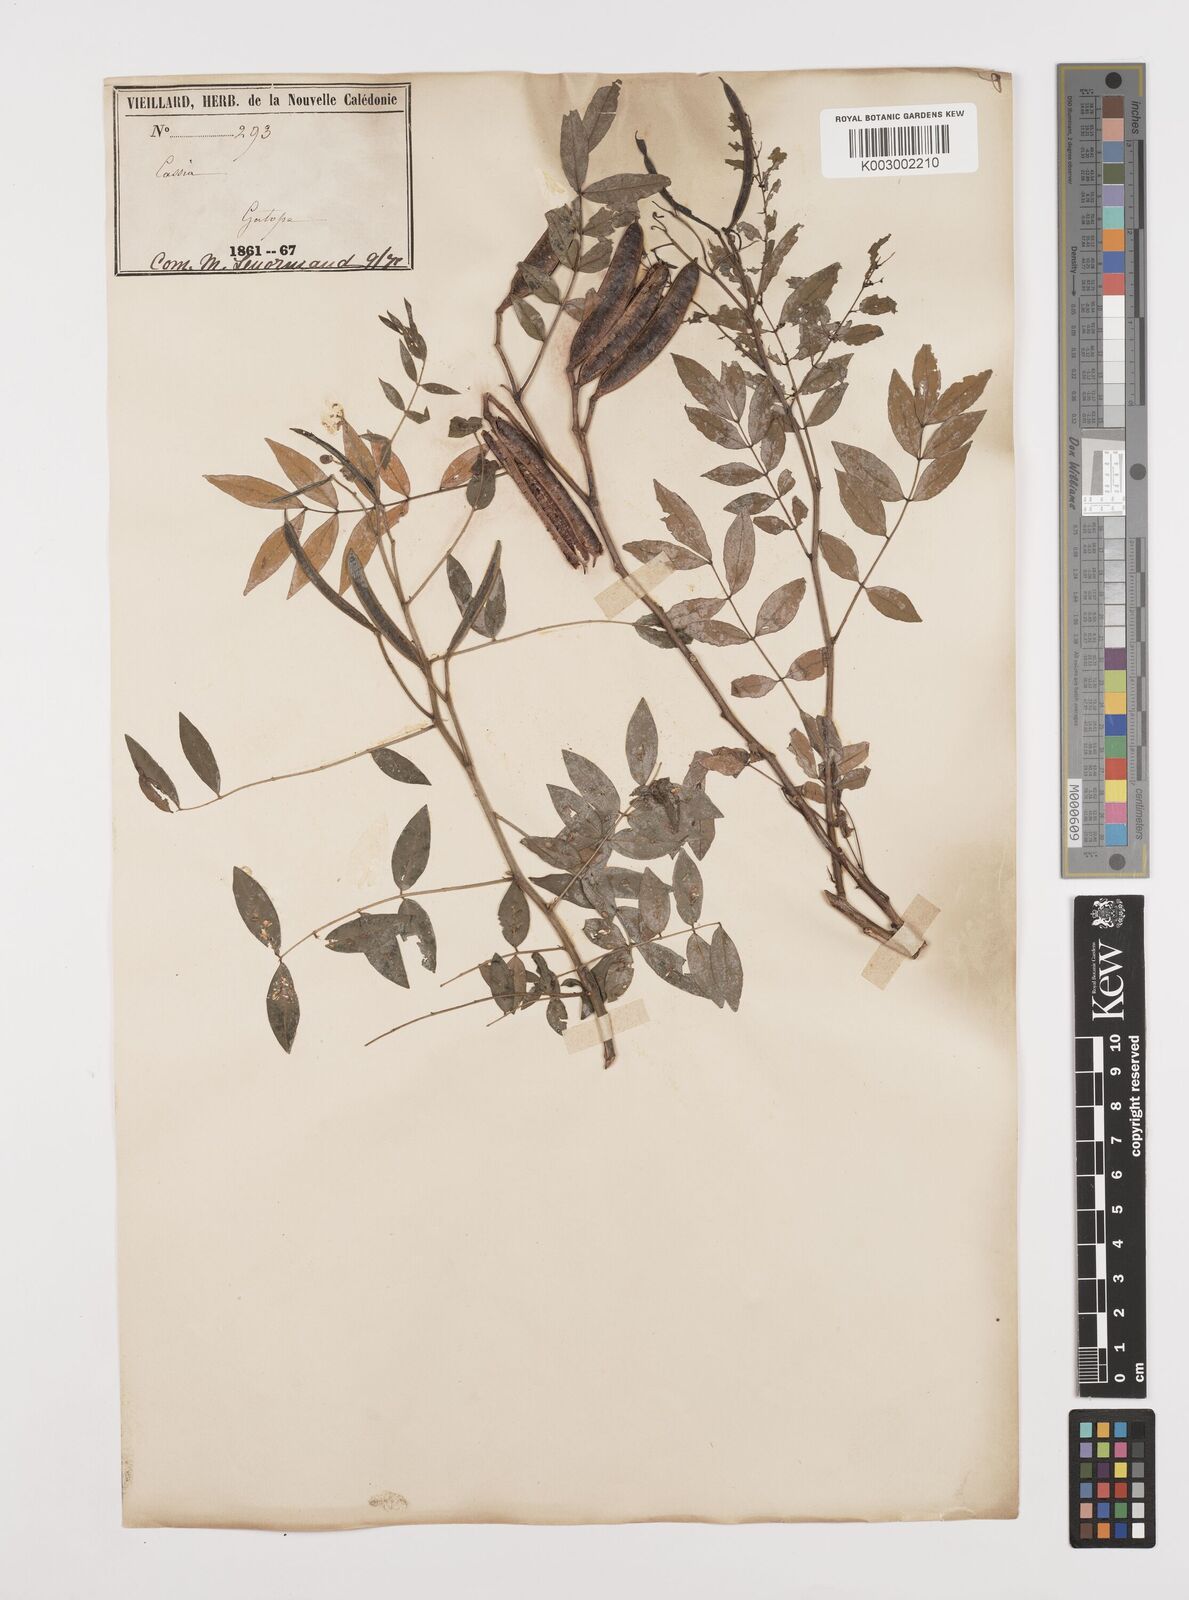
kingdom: Plantae
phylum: Tracheophyta
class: Magnoliopsida
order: Fabales
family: Fabaceae
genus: Senna
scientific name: Senna sophera
